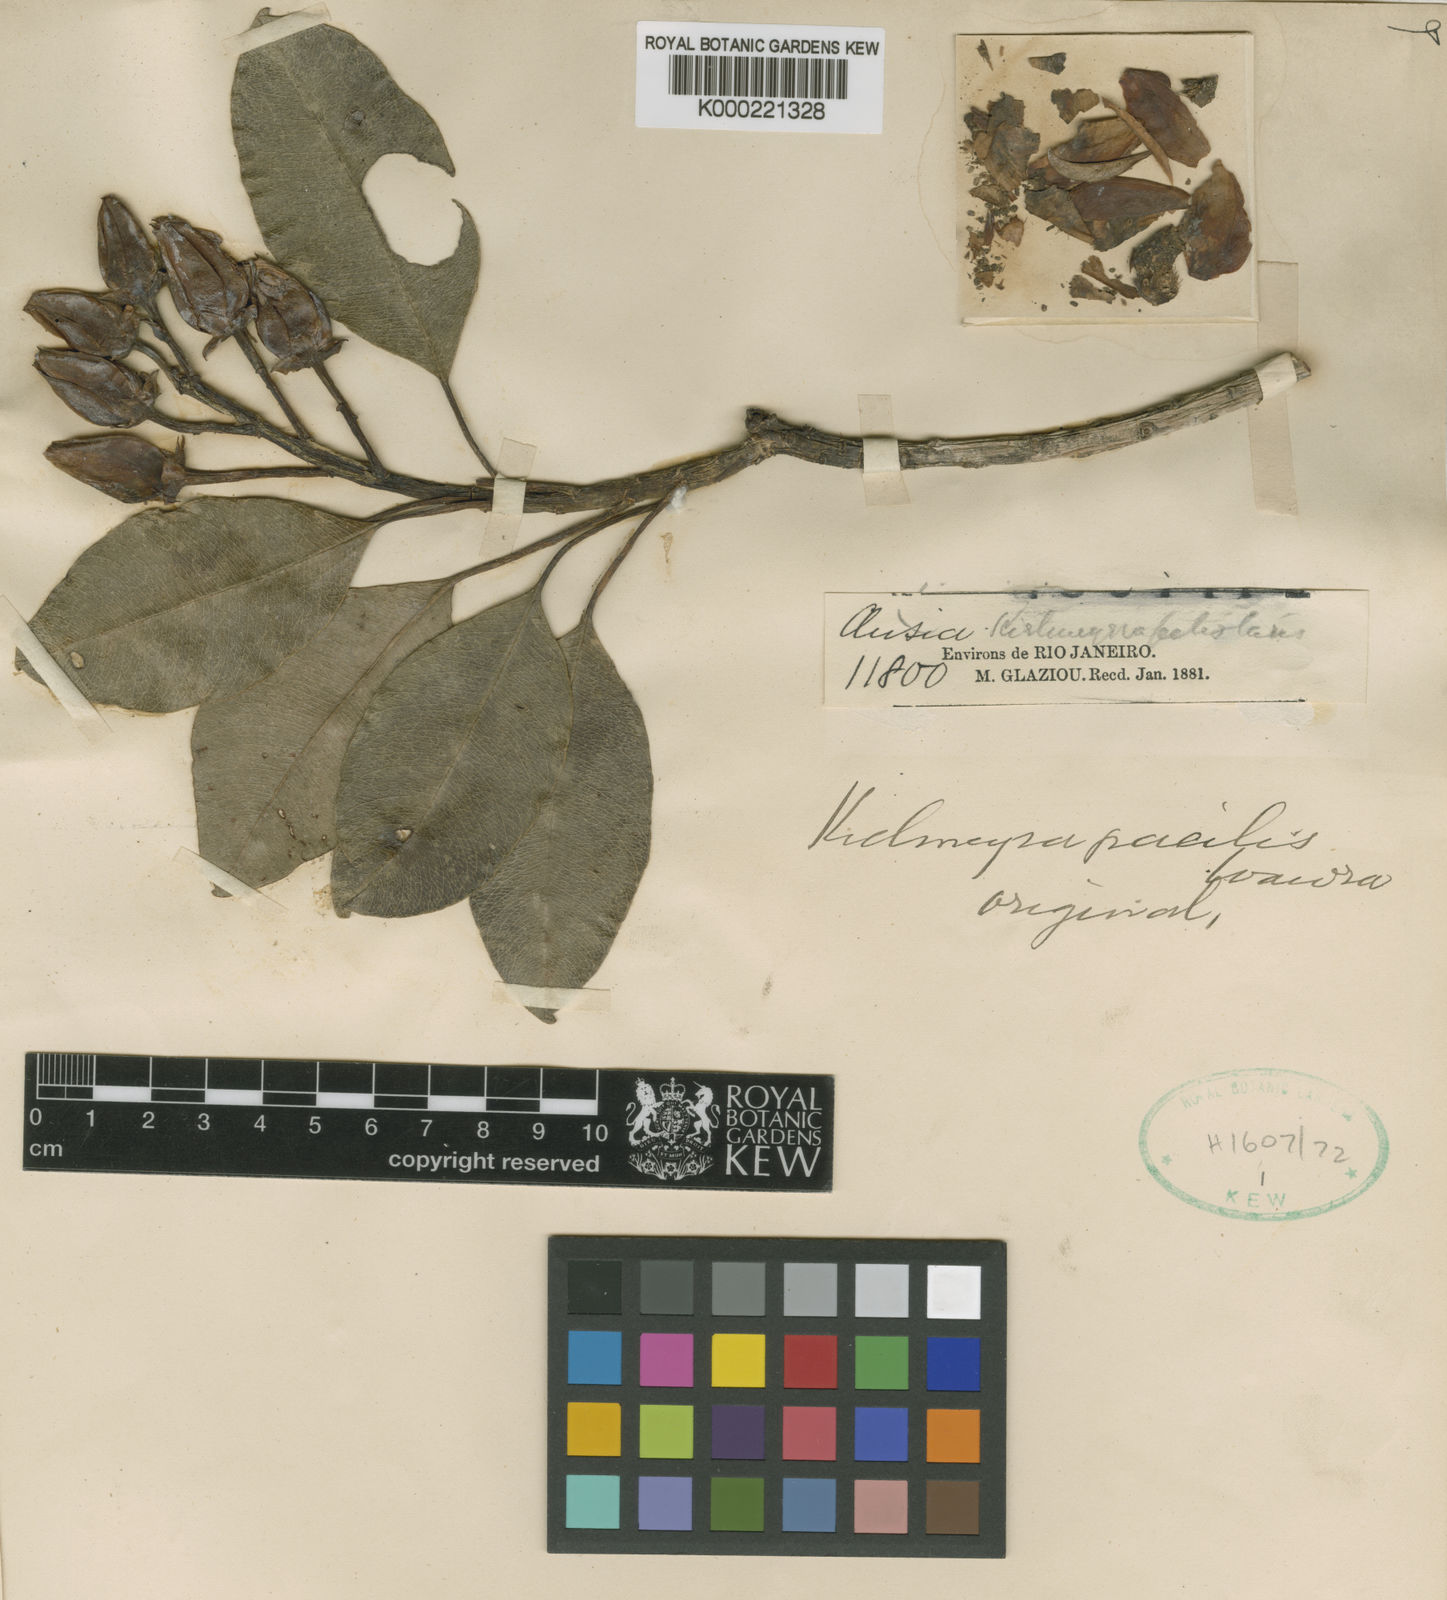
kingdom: Plantae
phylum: Tracheophyta
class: Magnoliopsida
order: Malpighiales
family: Calophyllaceae
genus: Kielmeyera
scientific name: Kielmeyera gracilis
